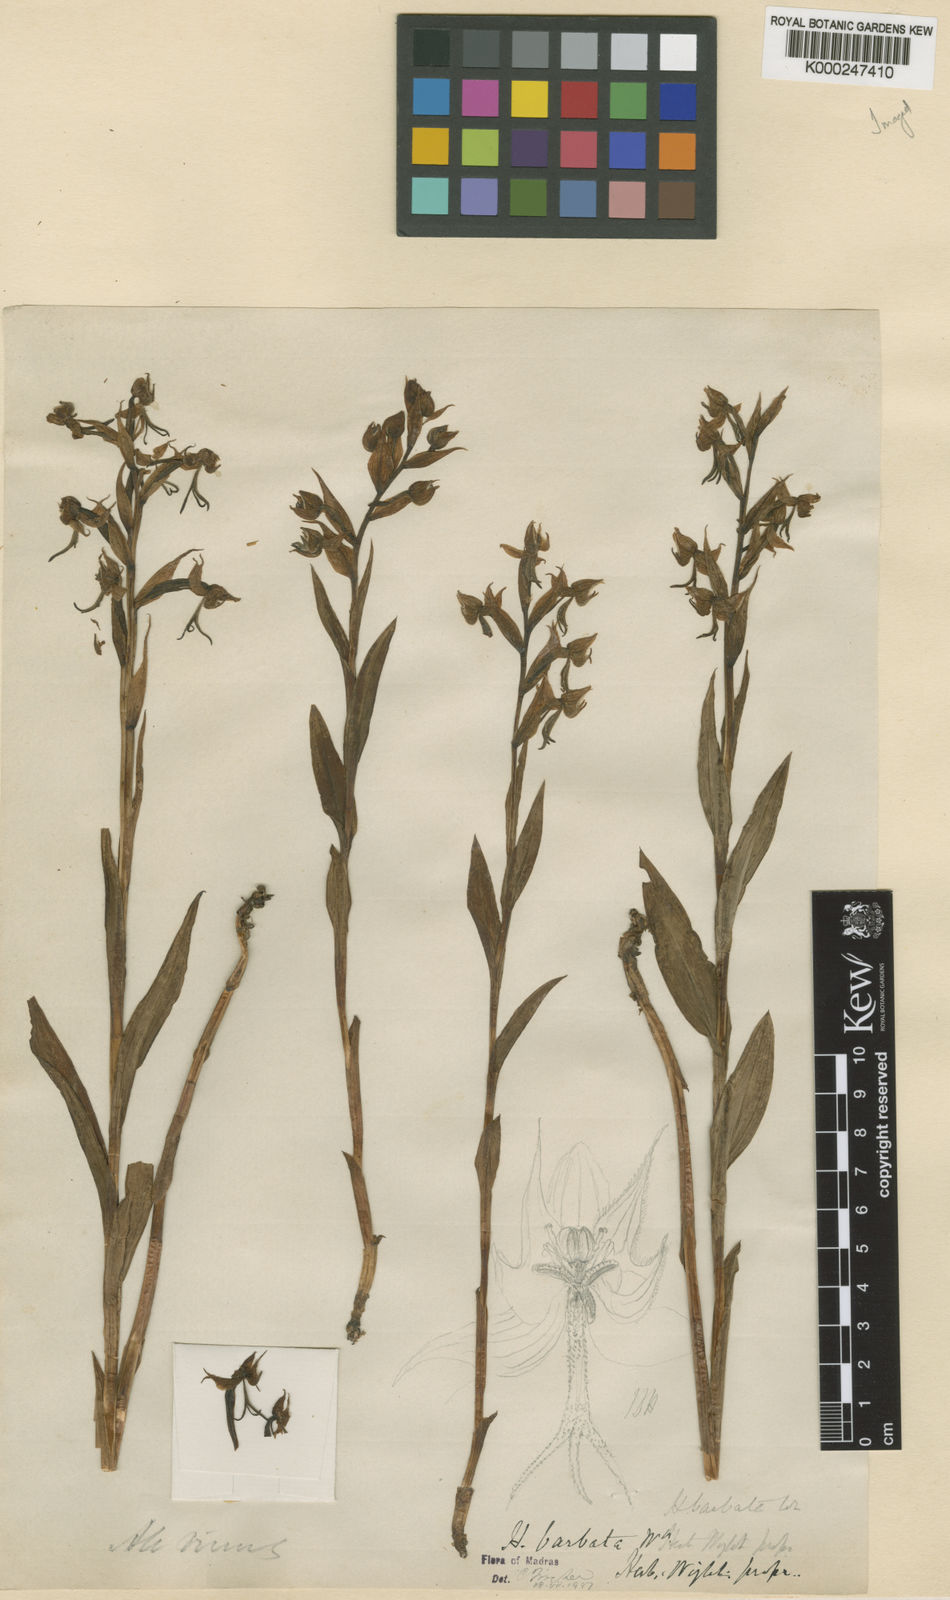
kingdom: Plantae
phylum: Tracheophyta
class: Liliopsida
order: Asparagales
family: Orchidaceae
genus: Habenaria
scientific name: Habenaria
